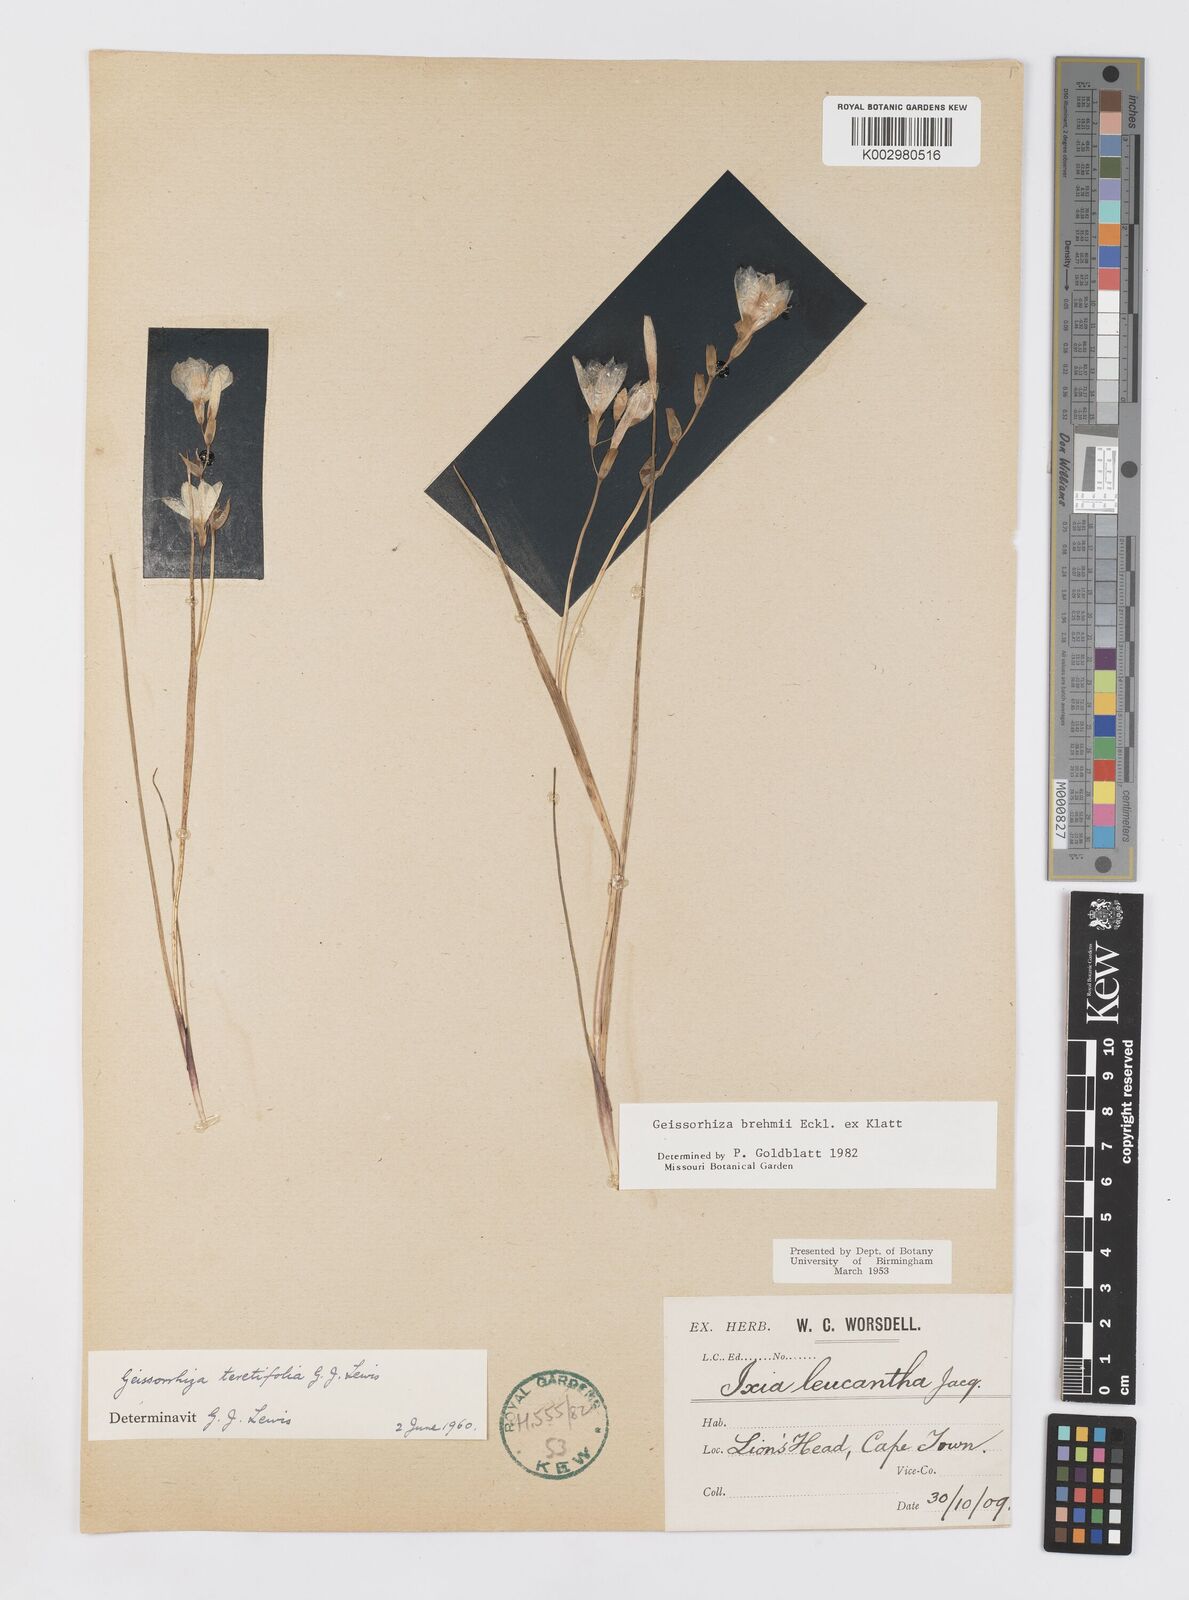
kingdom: Plantae
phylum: Tracheophyta
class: Liliopsida
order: Asparagales
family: Iridaceae
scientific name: Iridaceae
